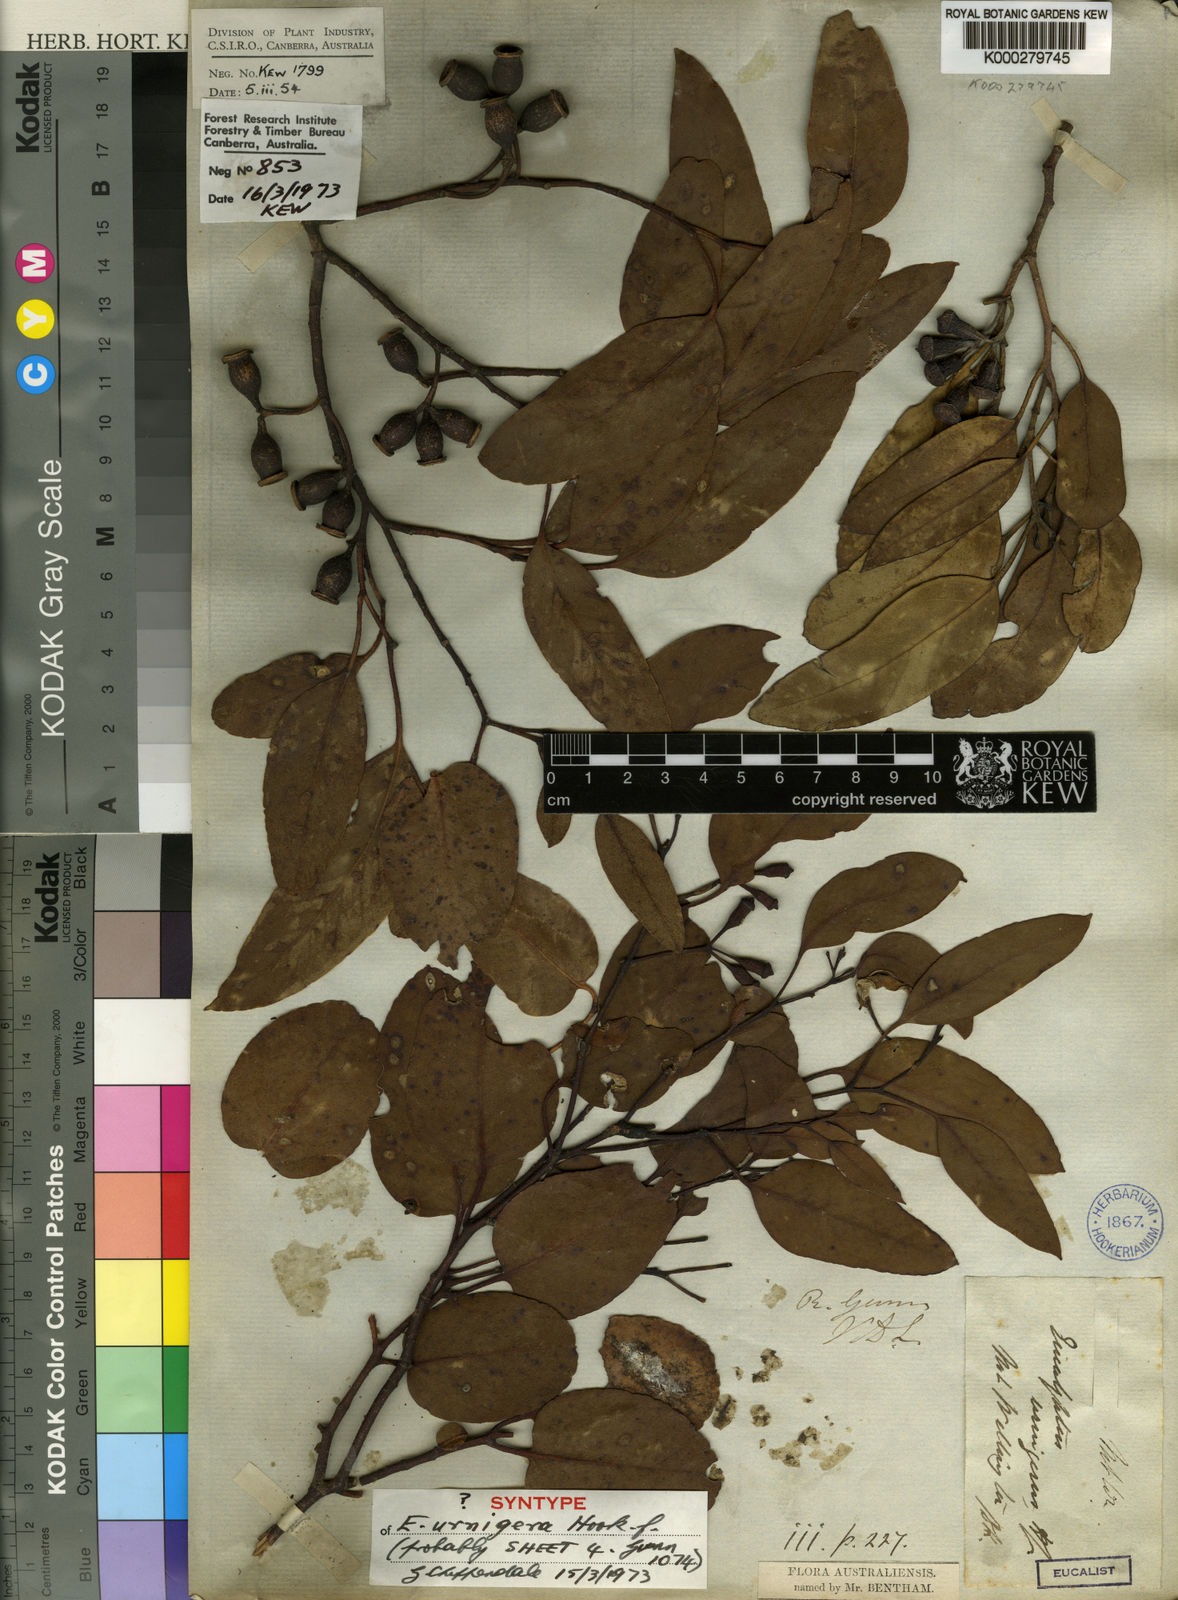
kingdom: Plantae
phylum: Tracheophyta
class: Magnoliopsida
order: Myrtales
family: Myrtaceae
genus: Eucalyptus
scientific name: Eucalyptus urnigera
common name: Urn-fruited gum
